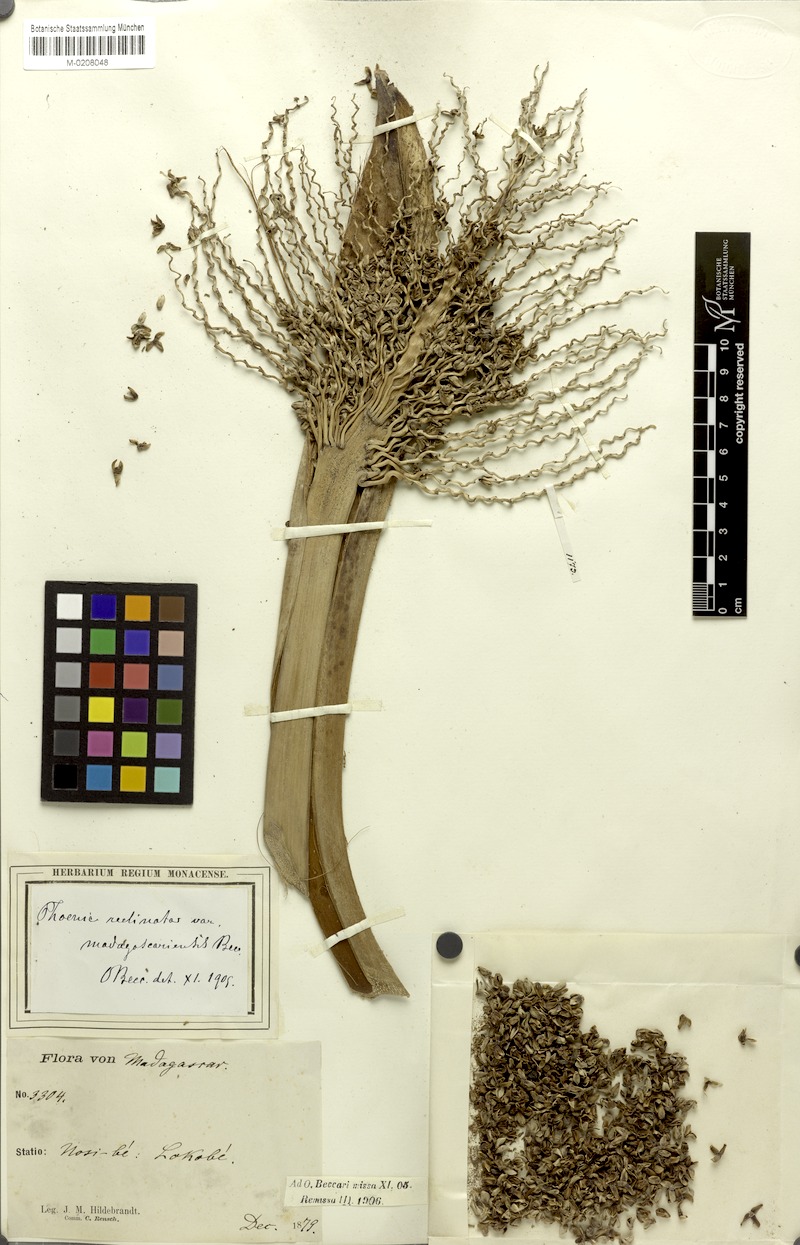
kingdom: Plantae
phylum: Tracheophyta
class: Liliopsida
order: Arecales
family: Arecaceae
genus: Phoenix
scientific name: Phoenix reclinata
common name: Senegal date palm
